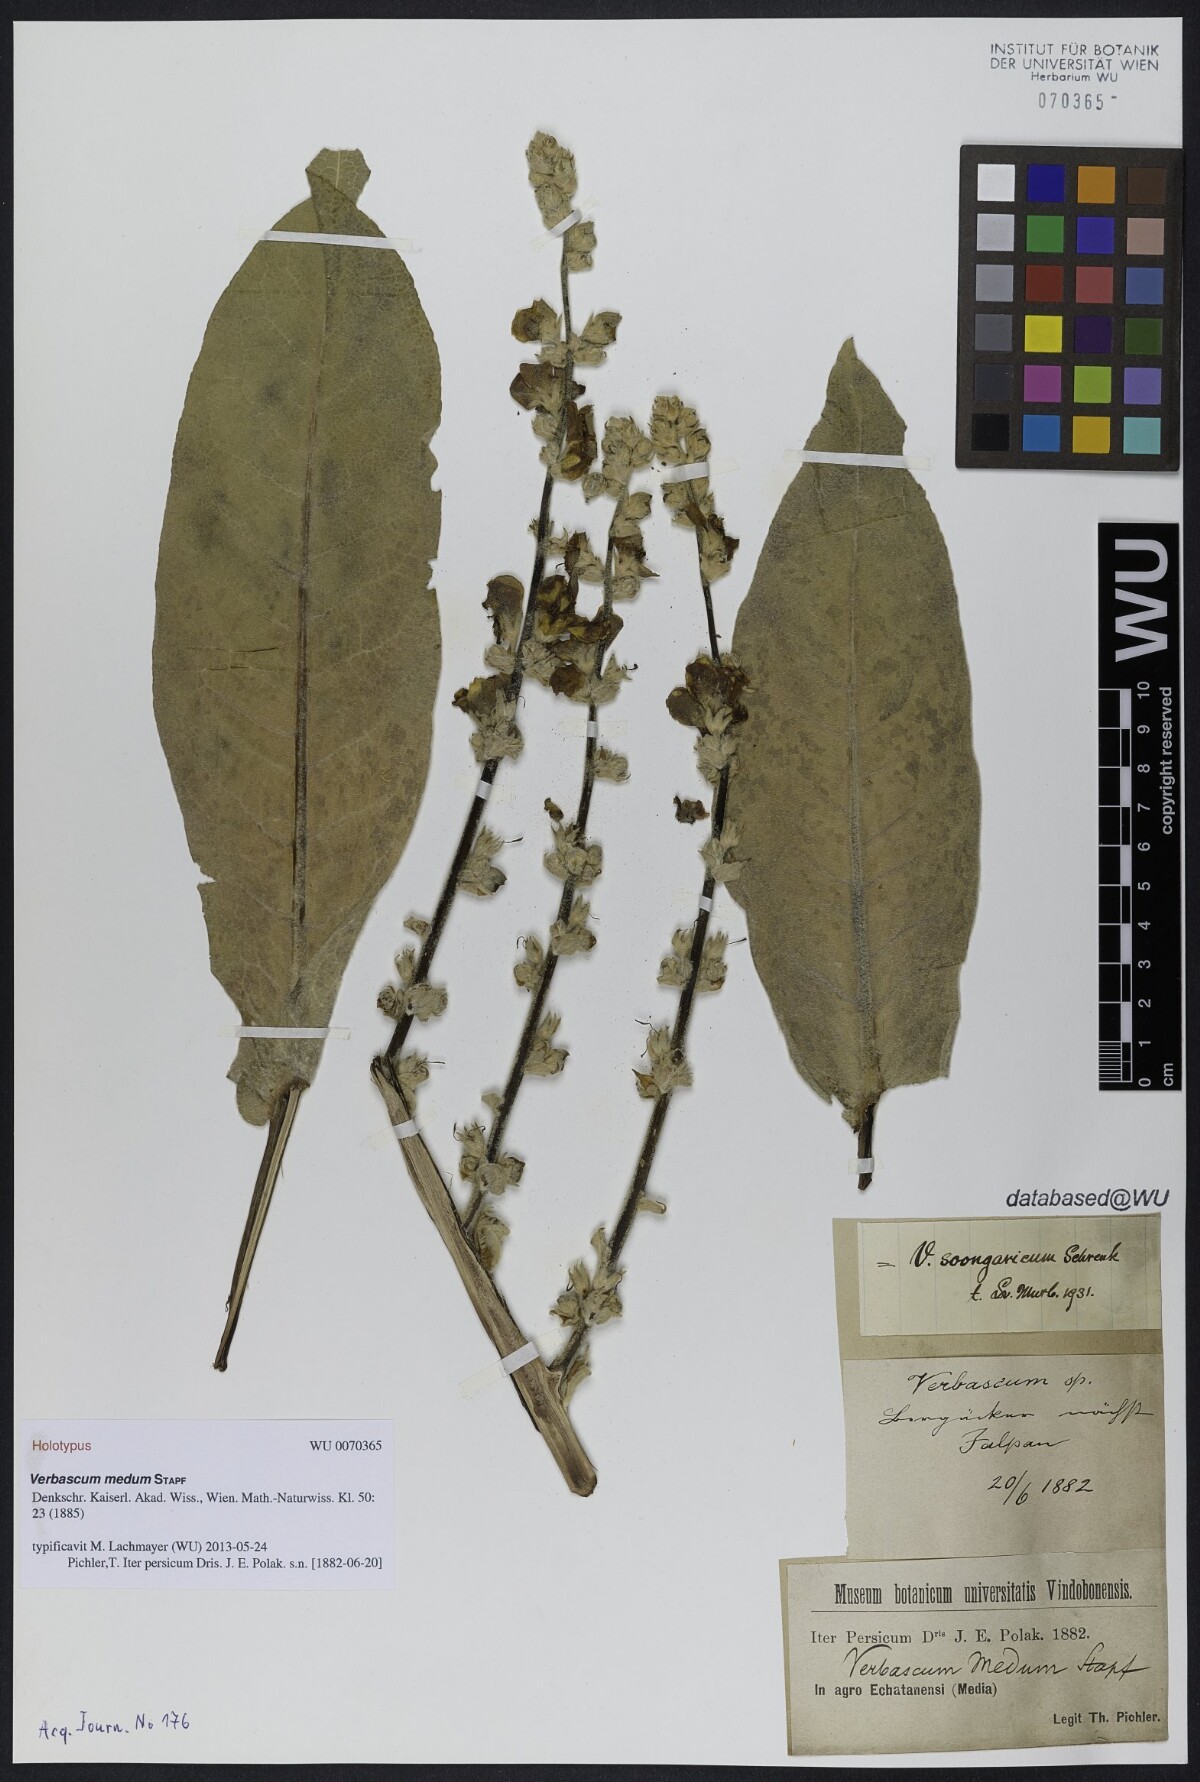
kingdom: Plantae
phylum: Tracheophyta
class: Magnoliopsida
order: Lamiales
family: Scrophulariaceae
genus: Verbascum
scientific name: Verbascum songaricum
